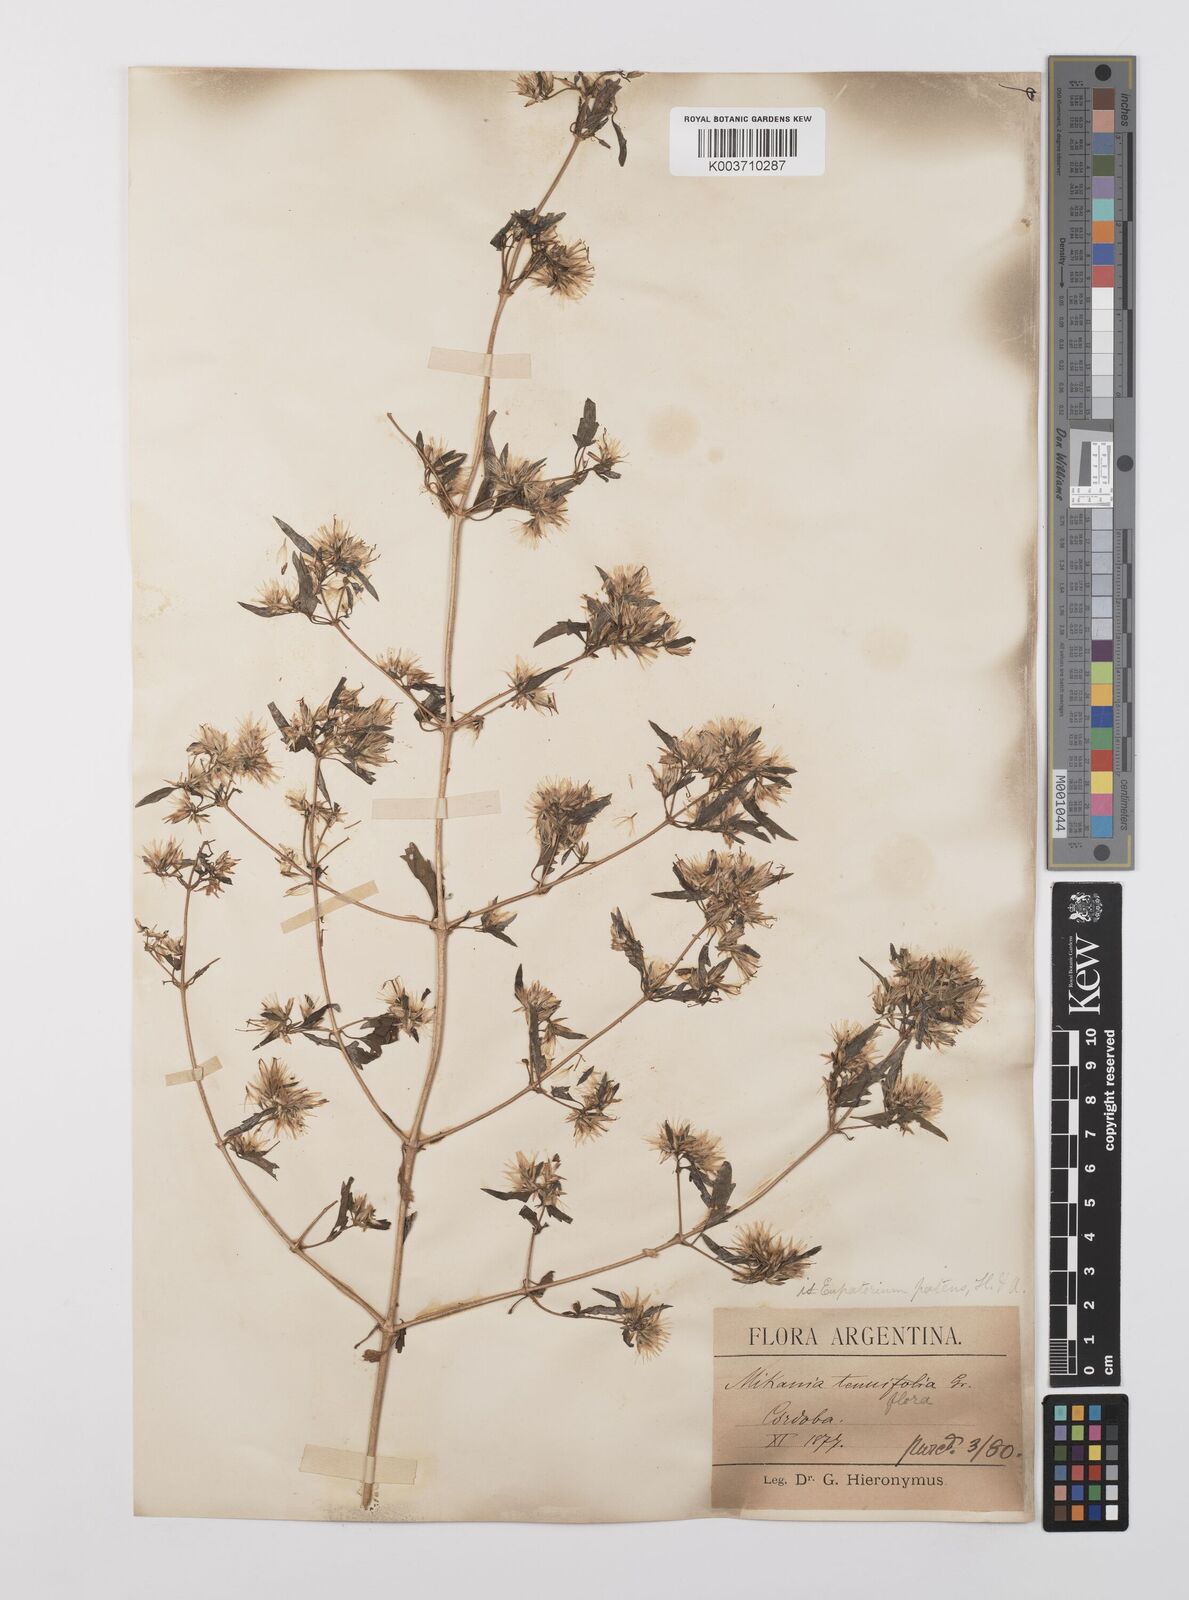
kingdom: Plantae
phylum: Tracheophyta
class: Magnoliopsida
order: Asterales
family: Asteraceae
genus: Austrobrickellia
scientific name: Austrobrickellia patens
